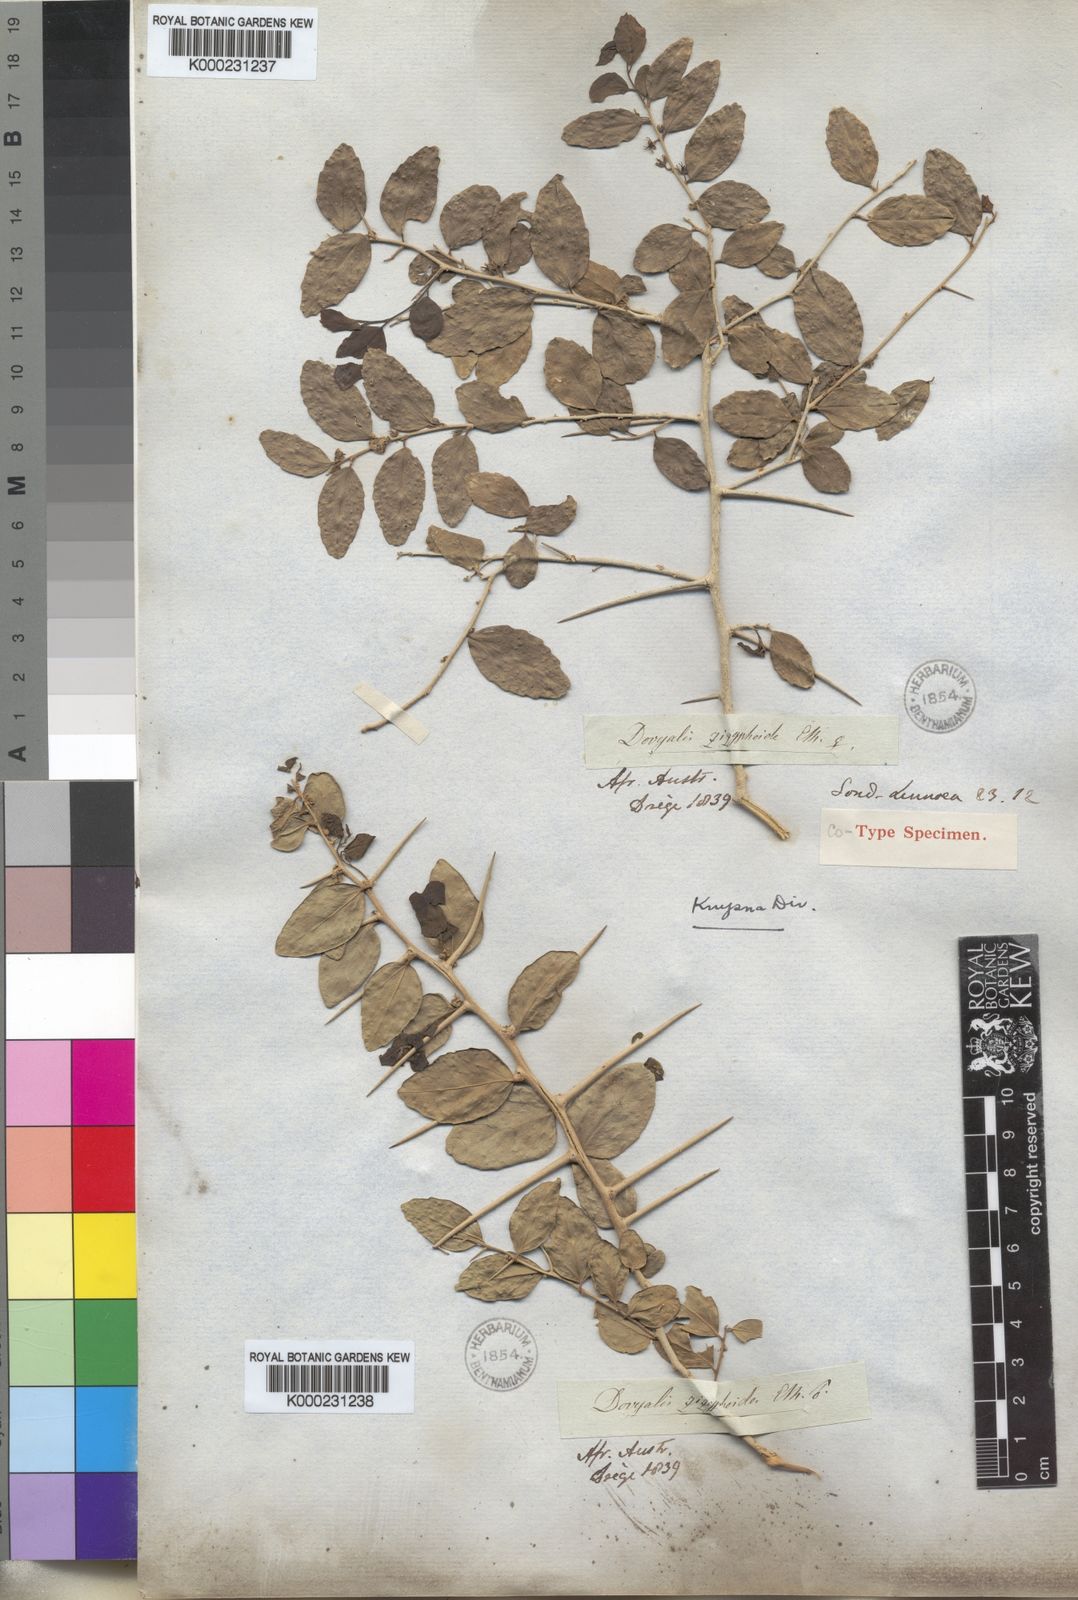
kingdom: Plantae
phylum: Tracheophyta
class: Magnoliopsida
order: Malpighiales
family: Salicaceae
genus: Dovyalis
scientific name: Dovyalis
